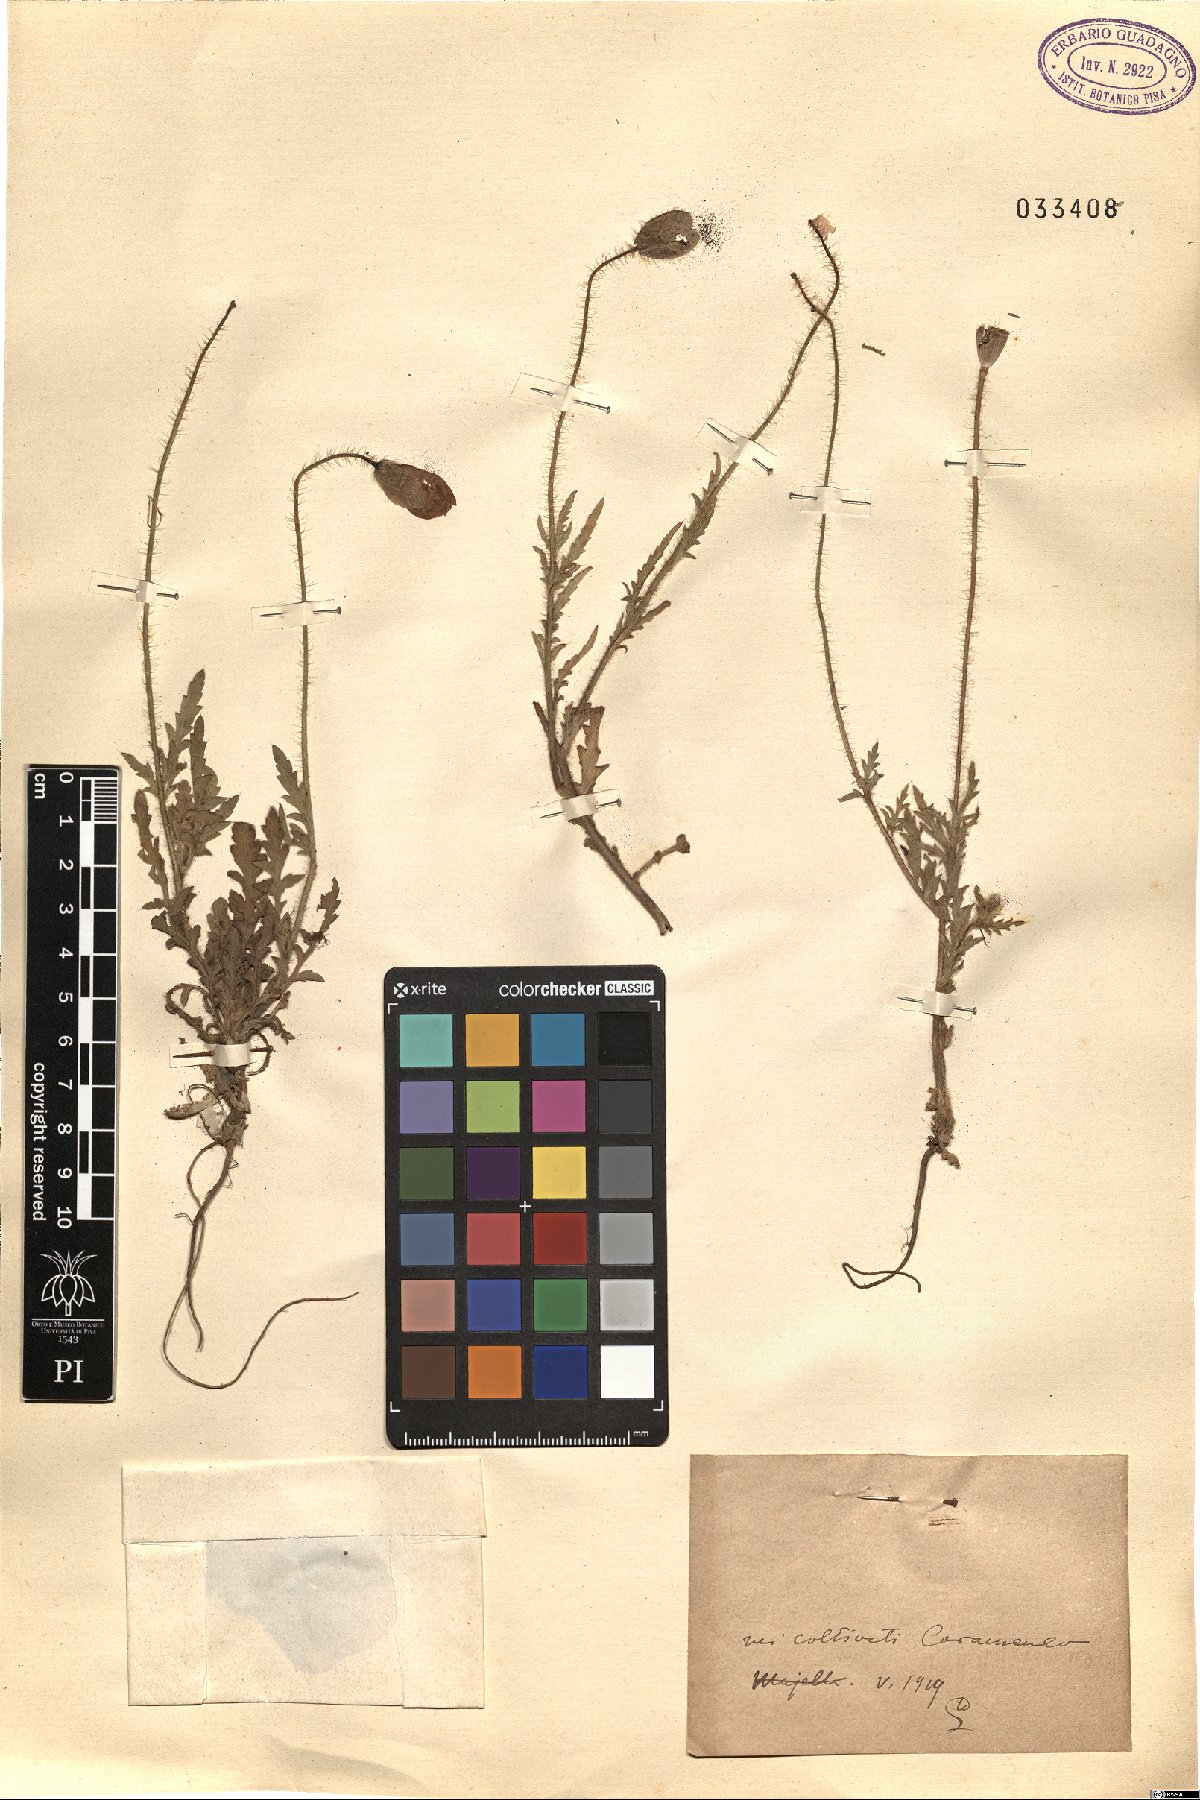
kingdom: Plantae
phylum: Tracheophyta
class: Magnoliopsida
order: Ranunculales
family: Papaveraceae
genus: Papaver
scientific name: Papaver
